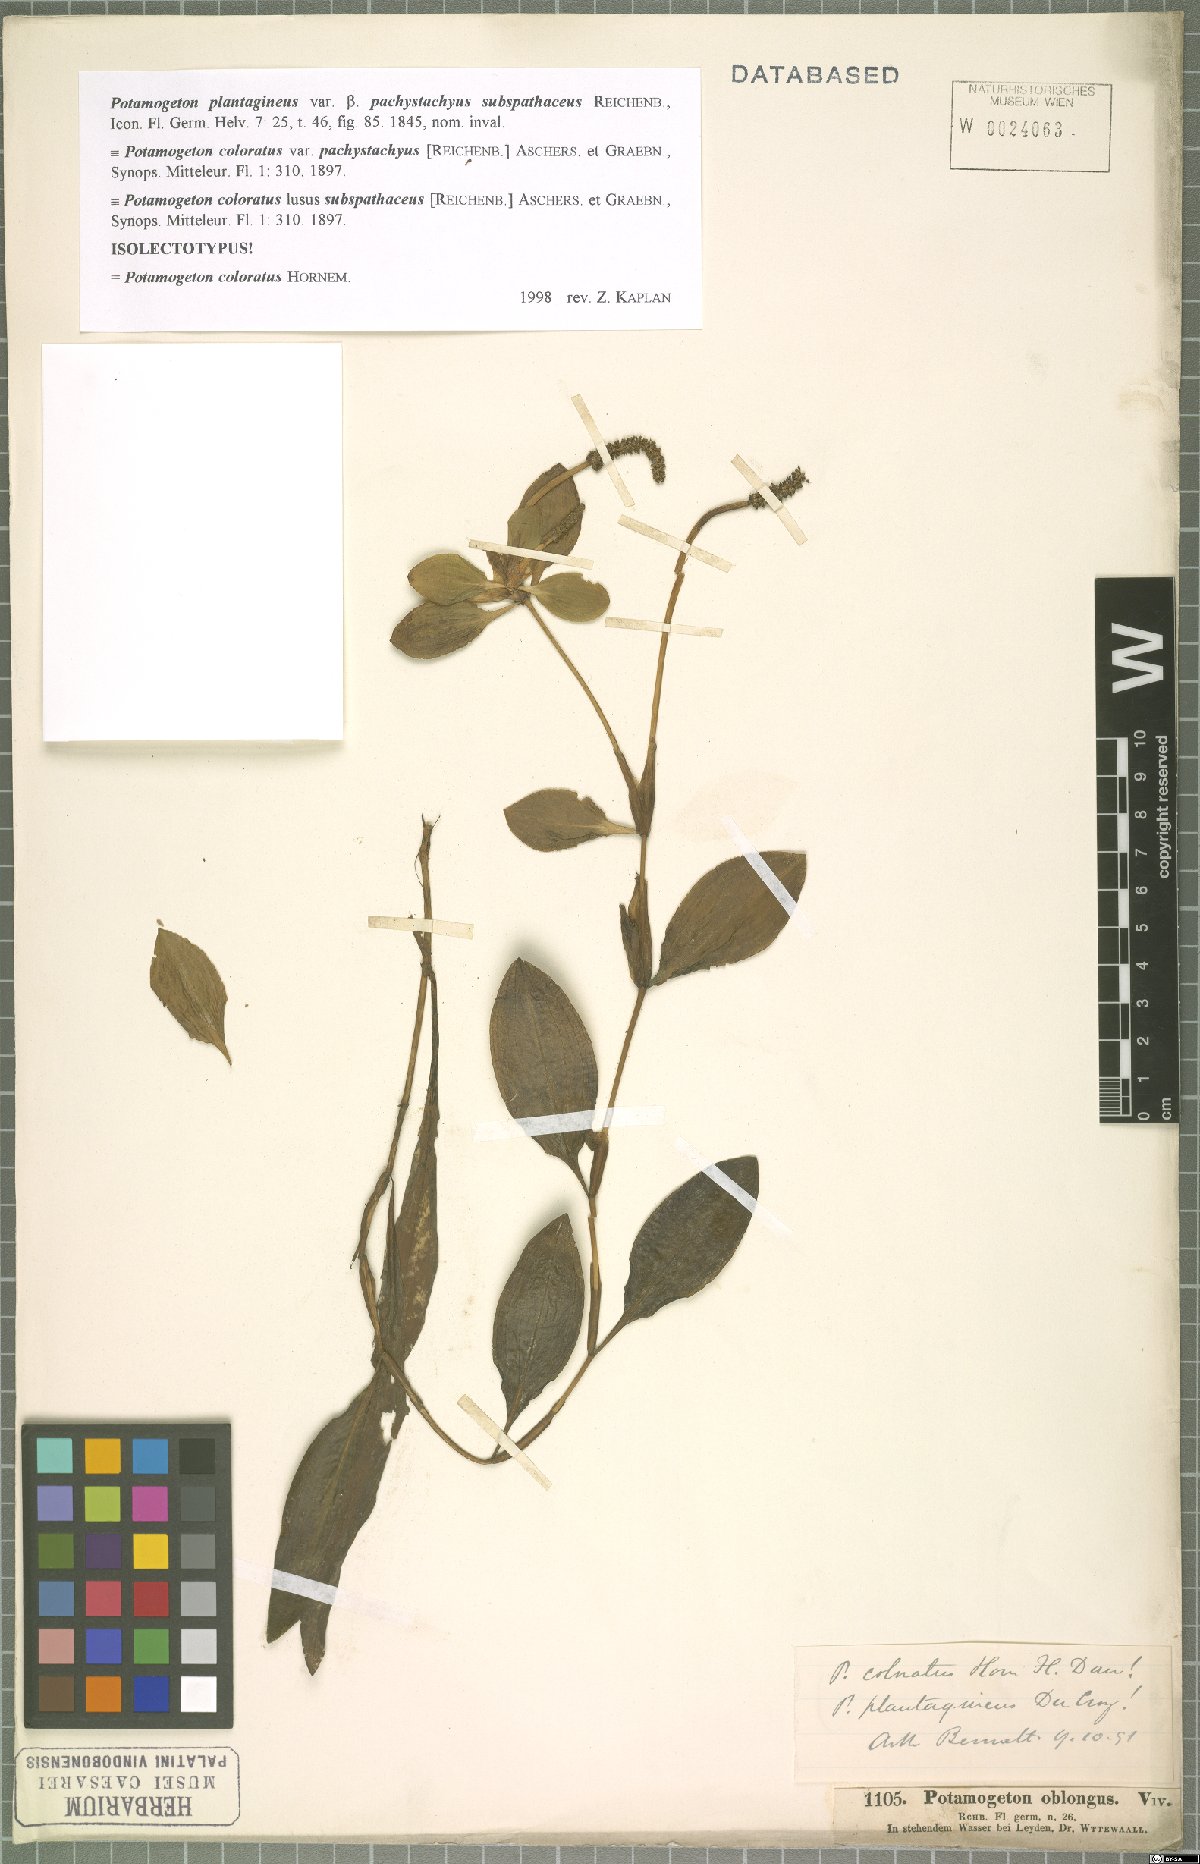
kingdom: Plantae
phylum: Tracheophyta
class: Liliopsida
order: Alismatales
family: Potamogetonaceae
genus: Potamogeton
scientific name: Potamogeton coloratus
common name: Fen pondweed
